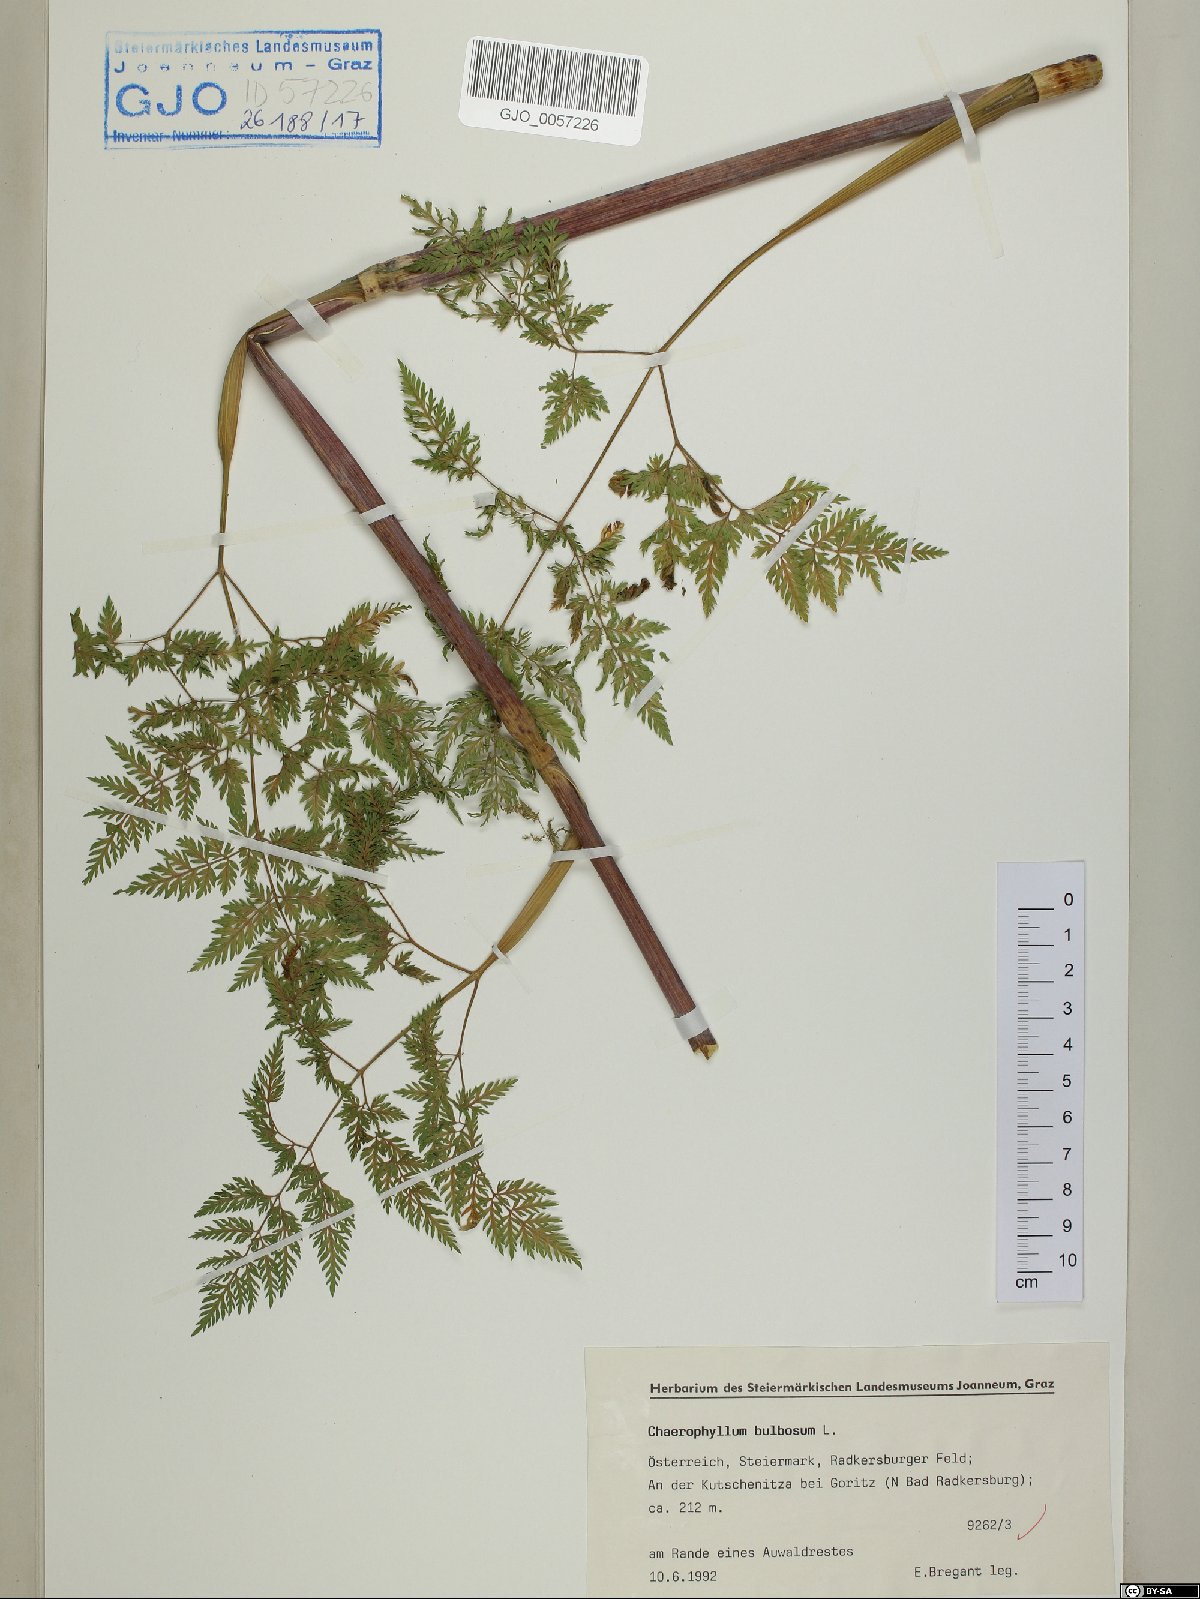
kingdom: Plantae
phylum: Tracheophyta
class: Magnoliopsida
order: Apiales
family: Apiaceae
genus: Chaerophyllum
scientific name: Chaerophyllum bulbosum
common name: Bulbous chervil
